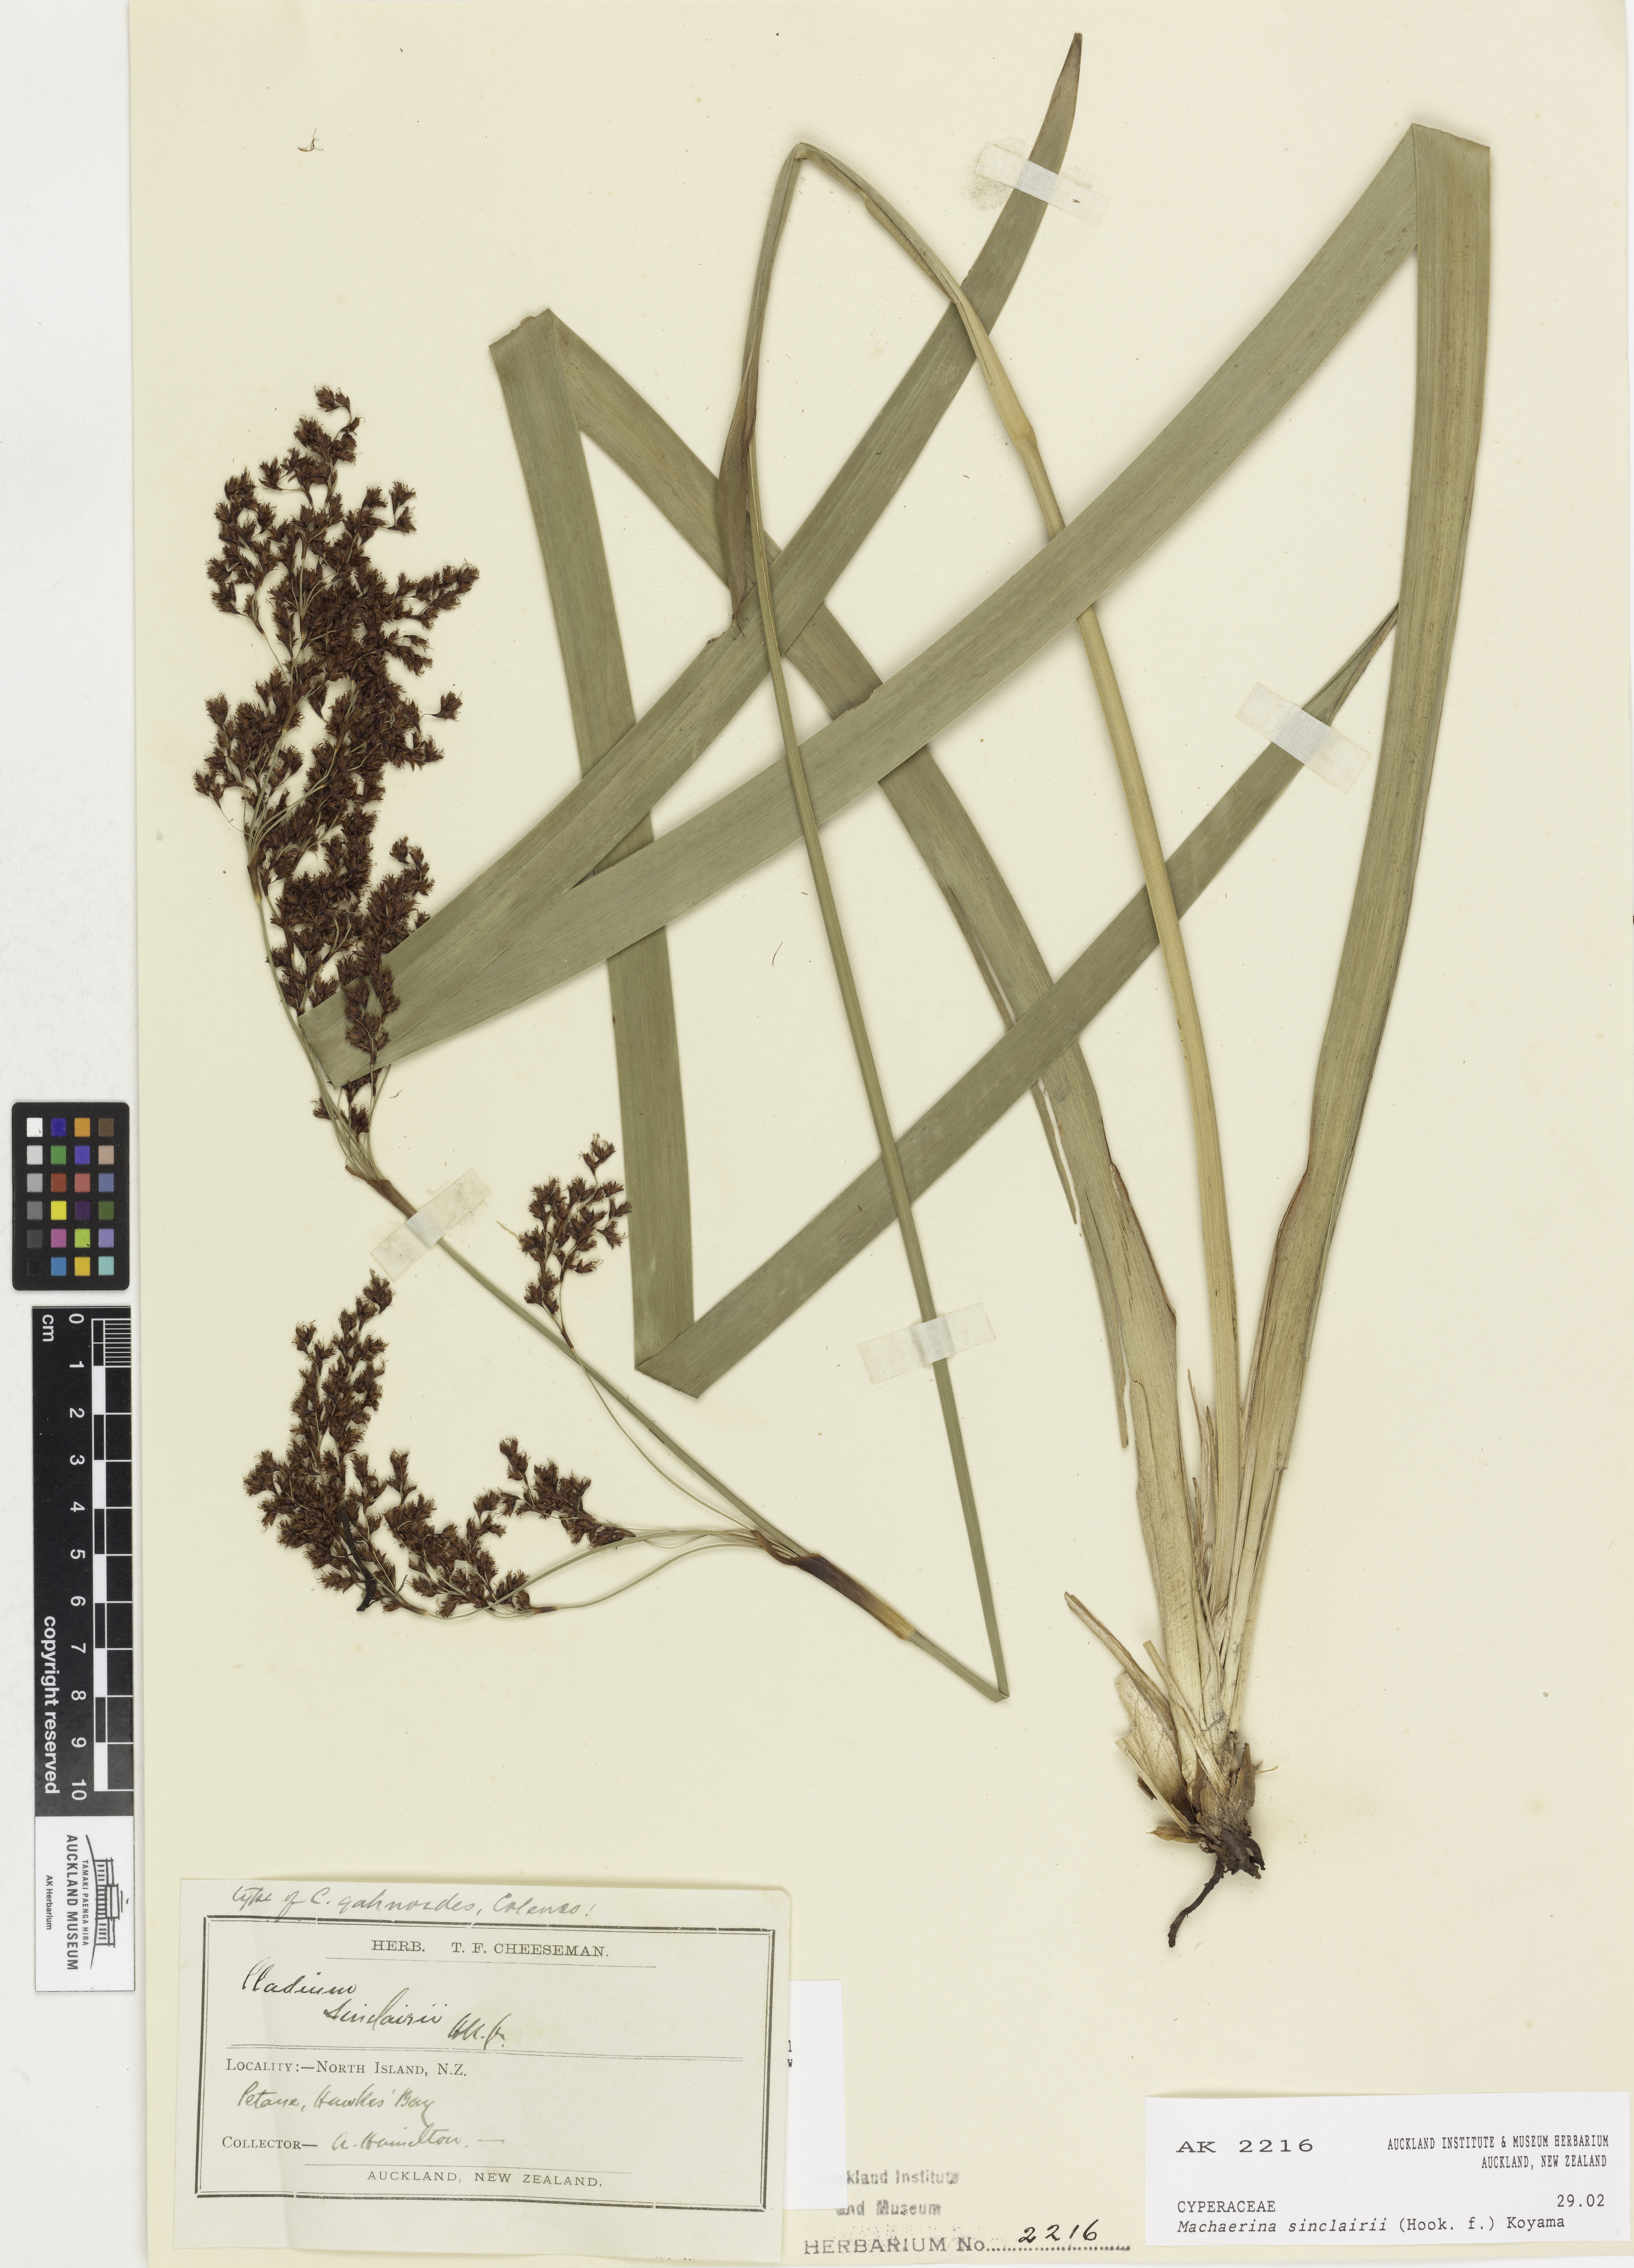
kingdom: Plantae
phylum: Tracheophyta
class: Liliopsida
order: Poales
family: Cyperaceae
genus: Machaerina
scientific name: Machaerina sinclairii
